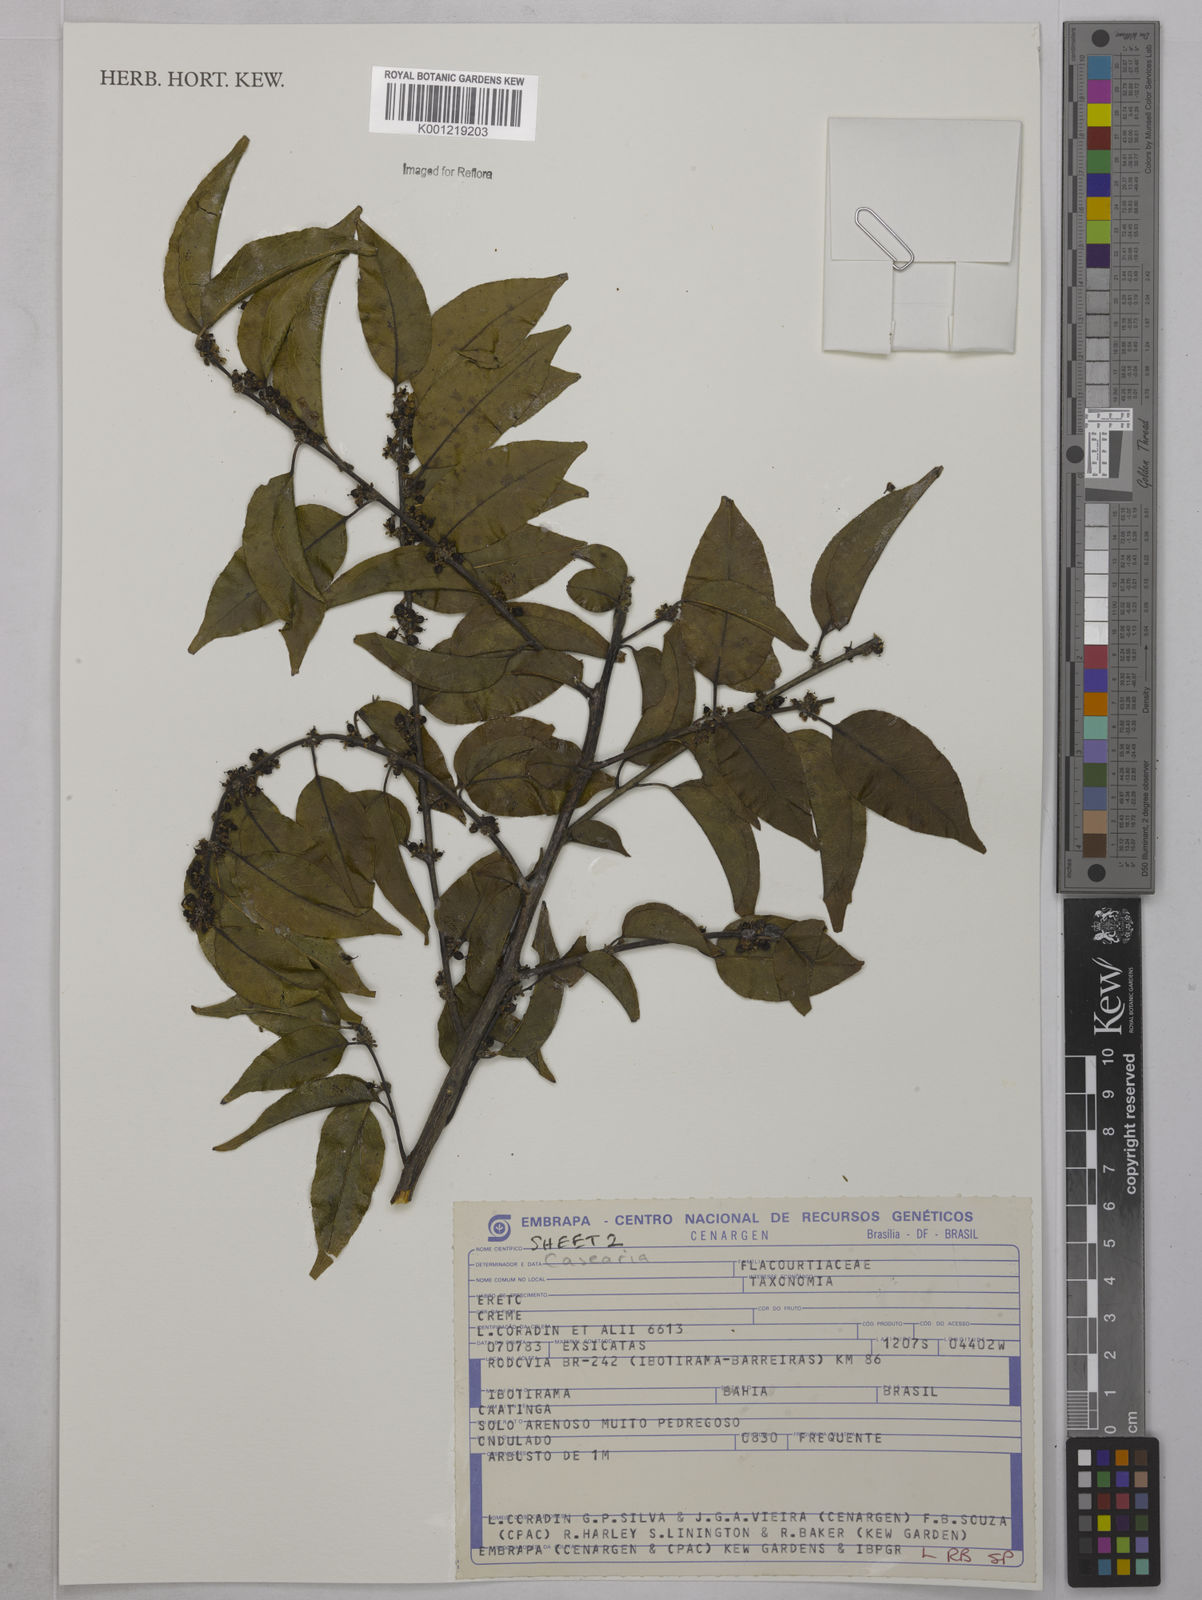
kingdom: Plantae
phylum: Tracheophyta
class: Magnoliopsida
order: Malpighiales
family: Salicaceae
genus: Casearia
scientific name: Casearia
